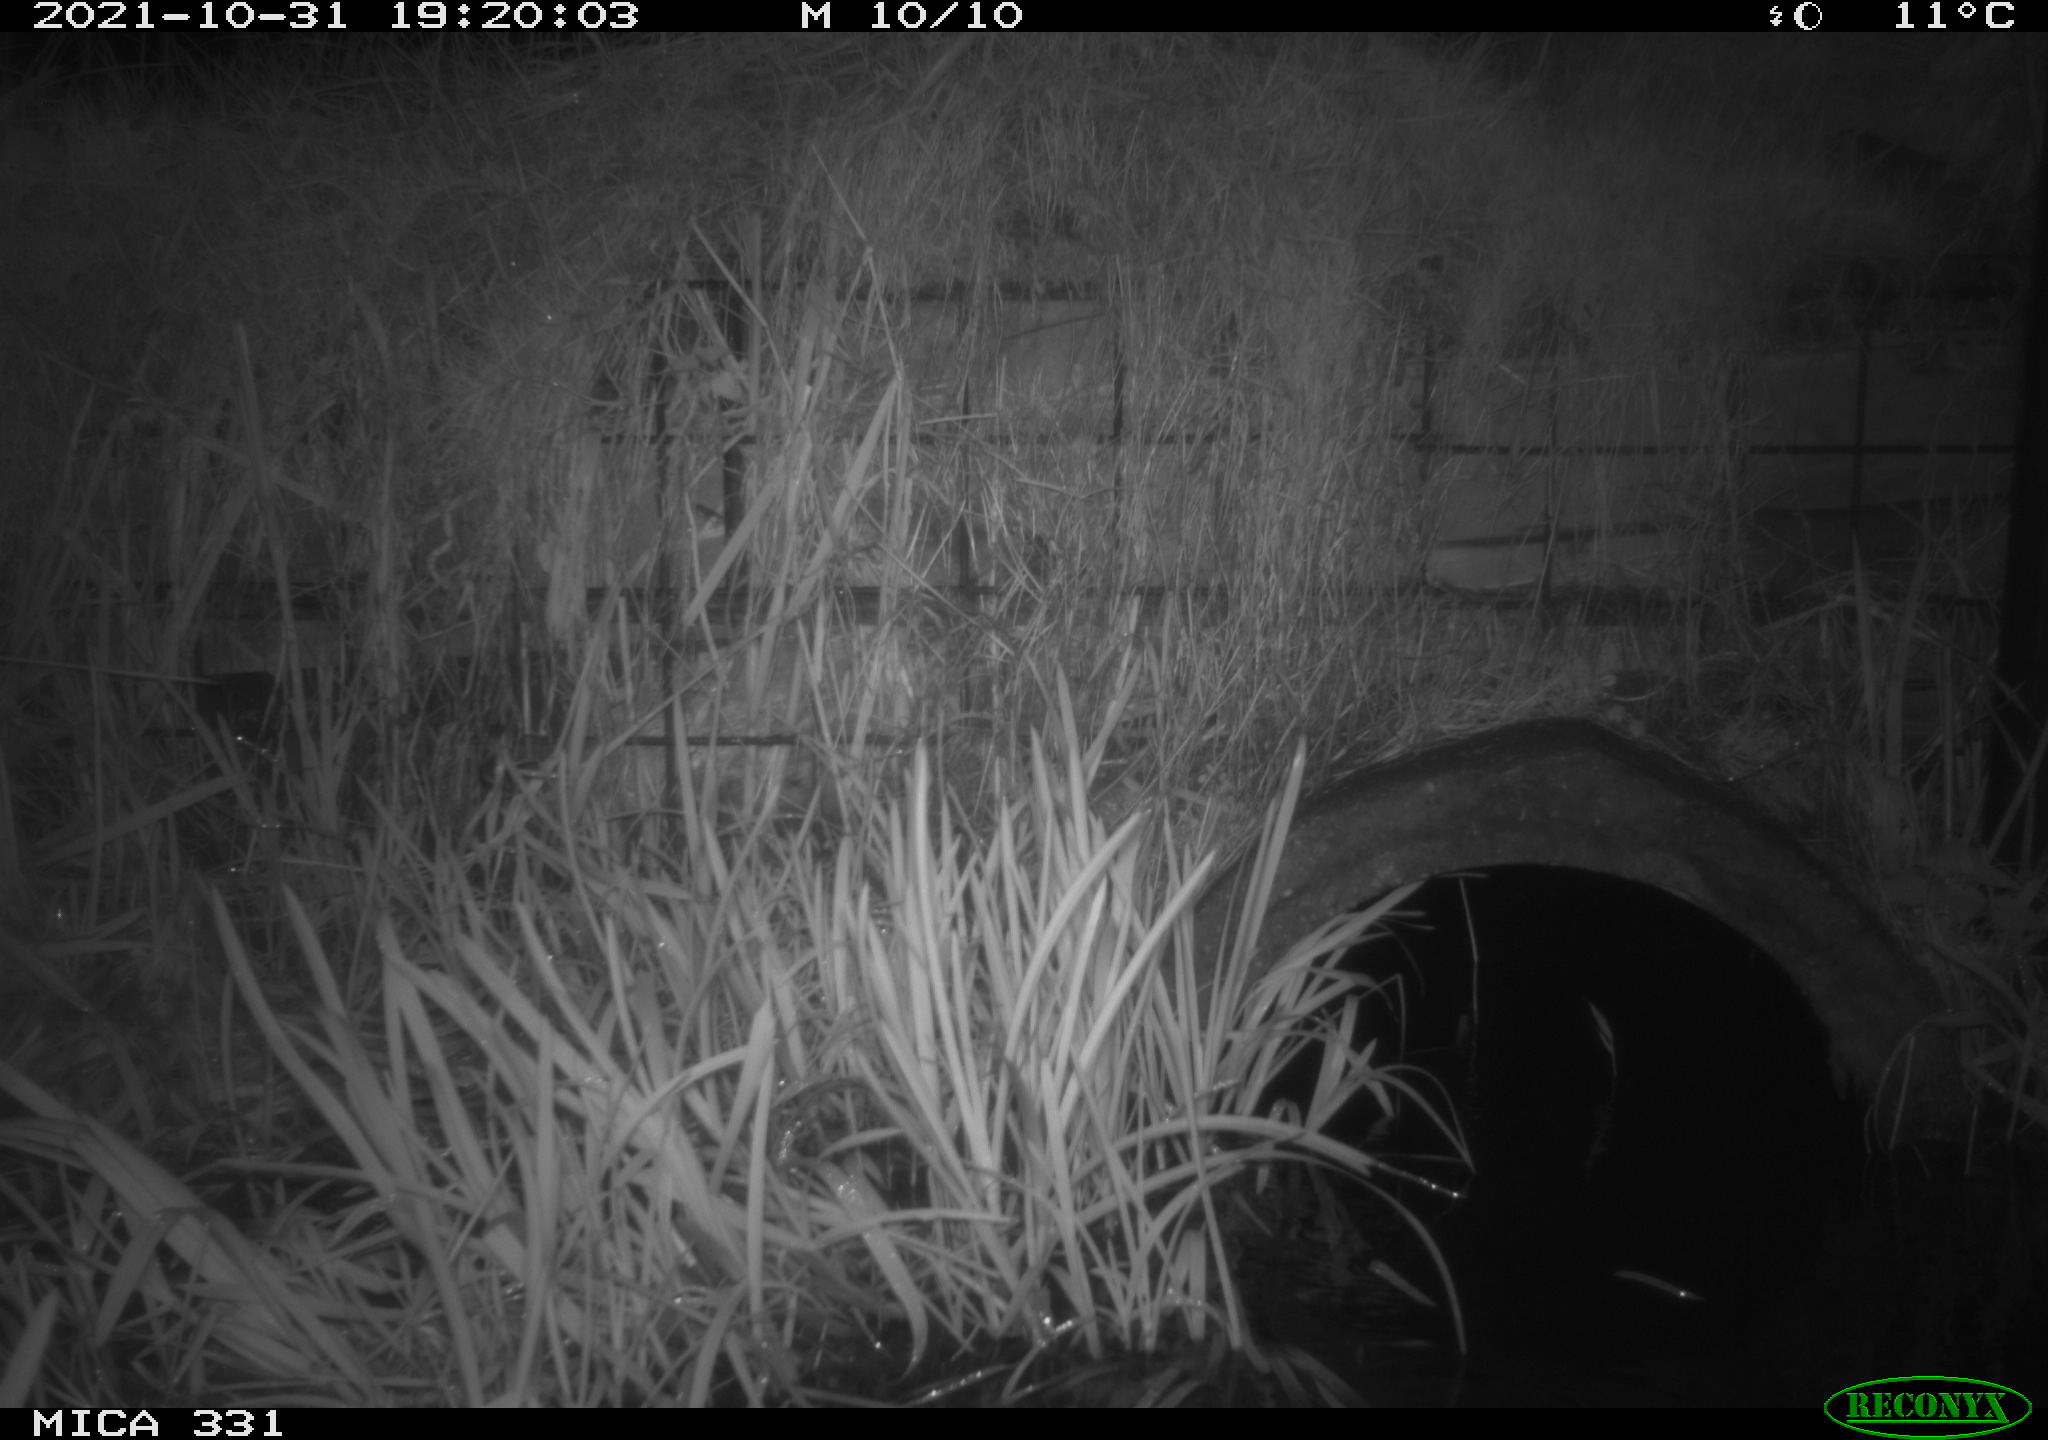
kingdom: Animalia
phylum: Chordata
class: Mammalia
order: Rodentia
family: Muridae
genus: Rattus
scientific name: Rattus norvegicus
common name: Brown rat
